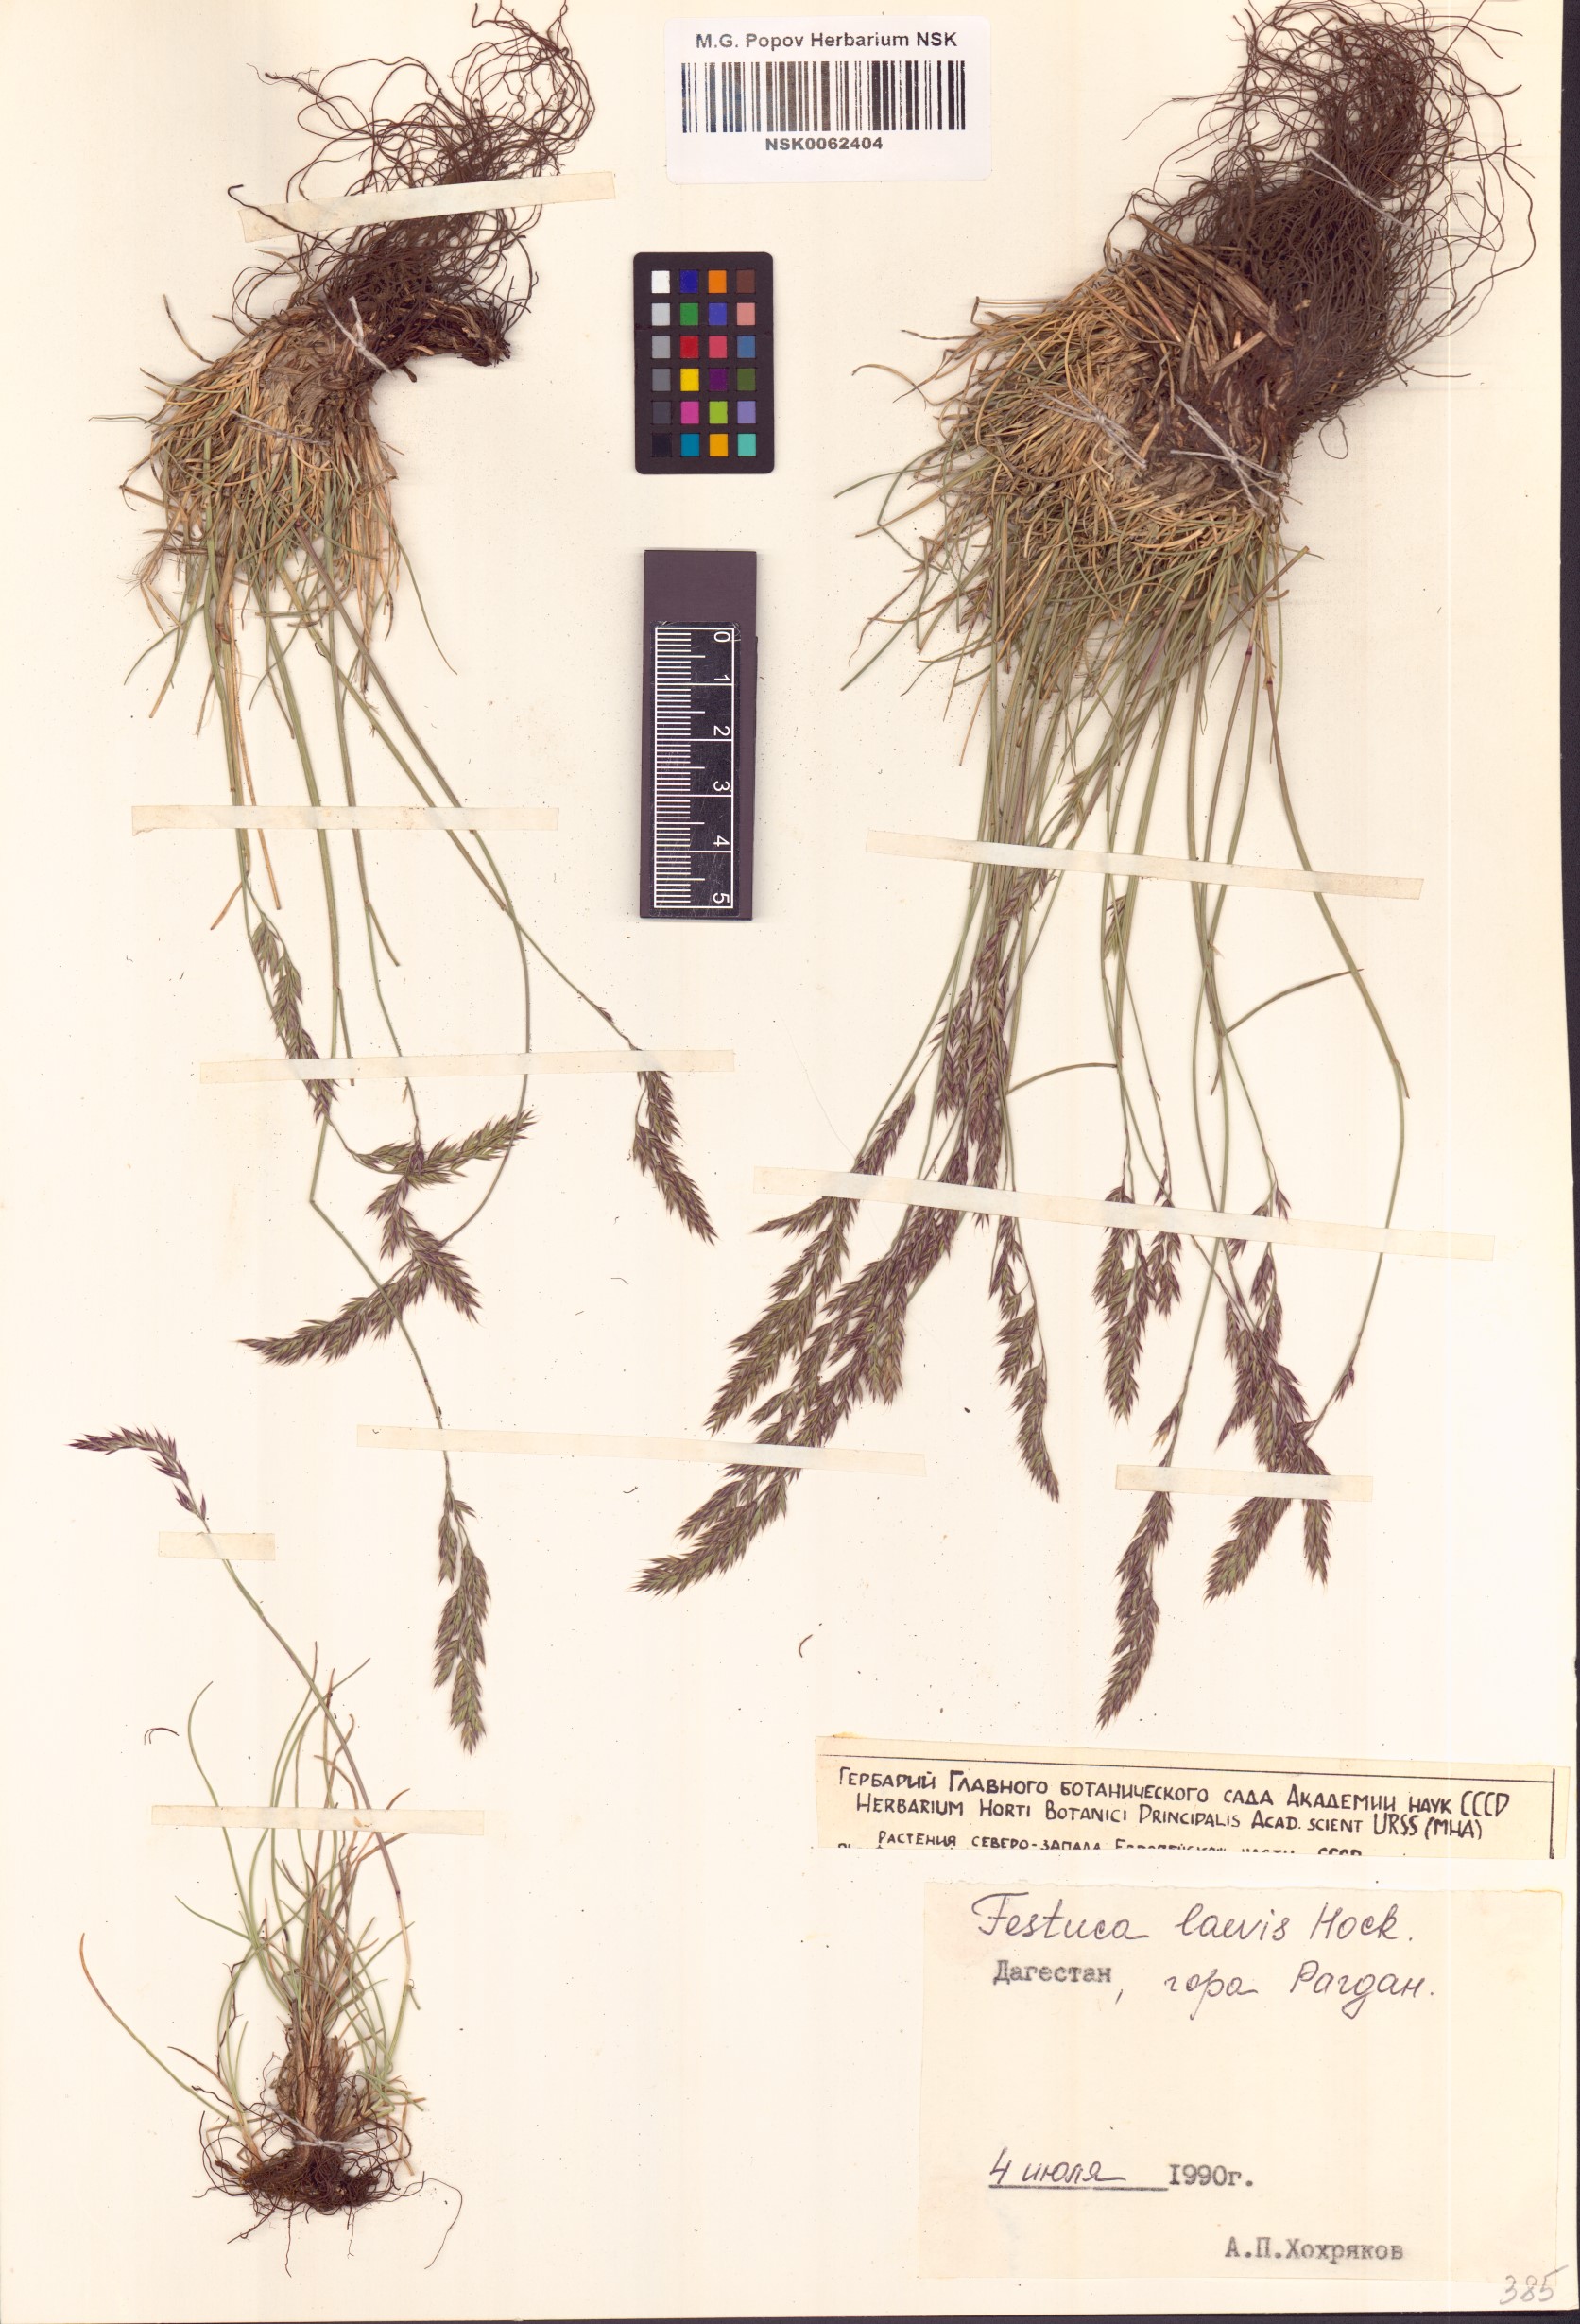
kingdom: Plantae
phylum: Tracheophyta
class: Liliopsida
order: Poales
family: Poaceae
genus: Festuca
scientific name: Festuca circummediterranea
